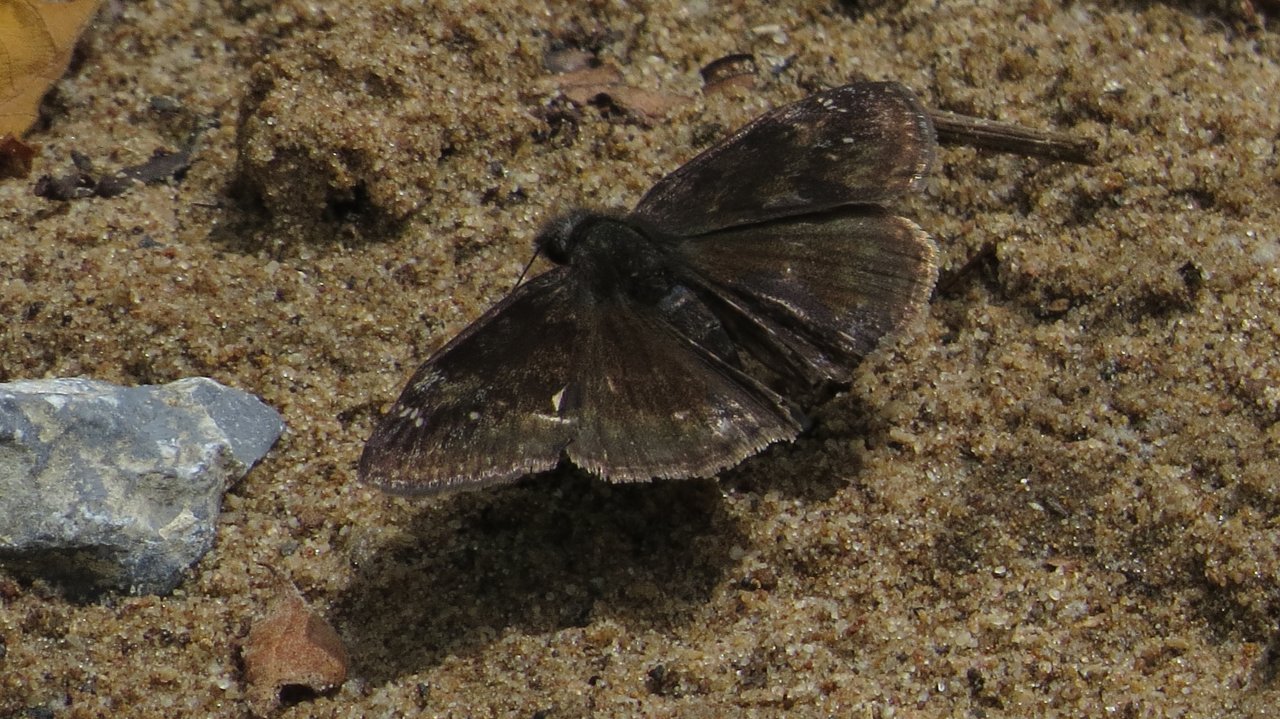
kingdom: Animalia
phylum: Arthropoda
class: Insecta
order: Lepidoptera
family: Hesperiidae
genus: Gesta
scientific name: Gesta
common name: Wild Indigo Duskywing
